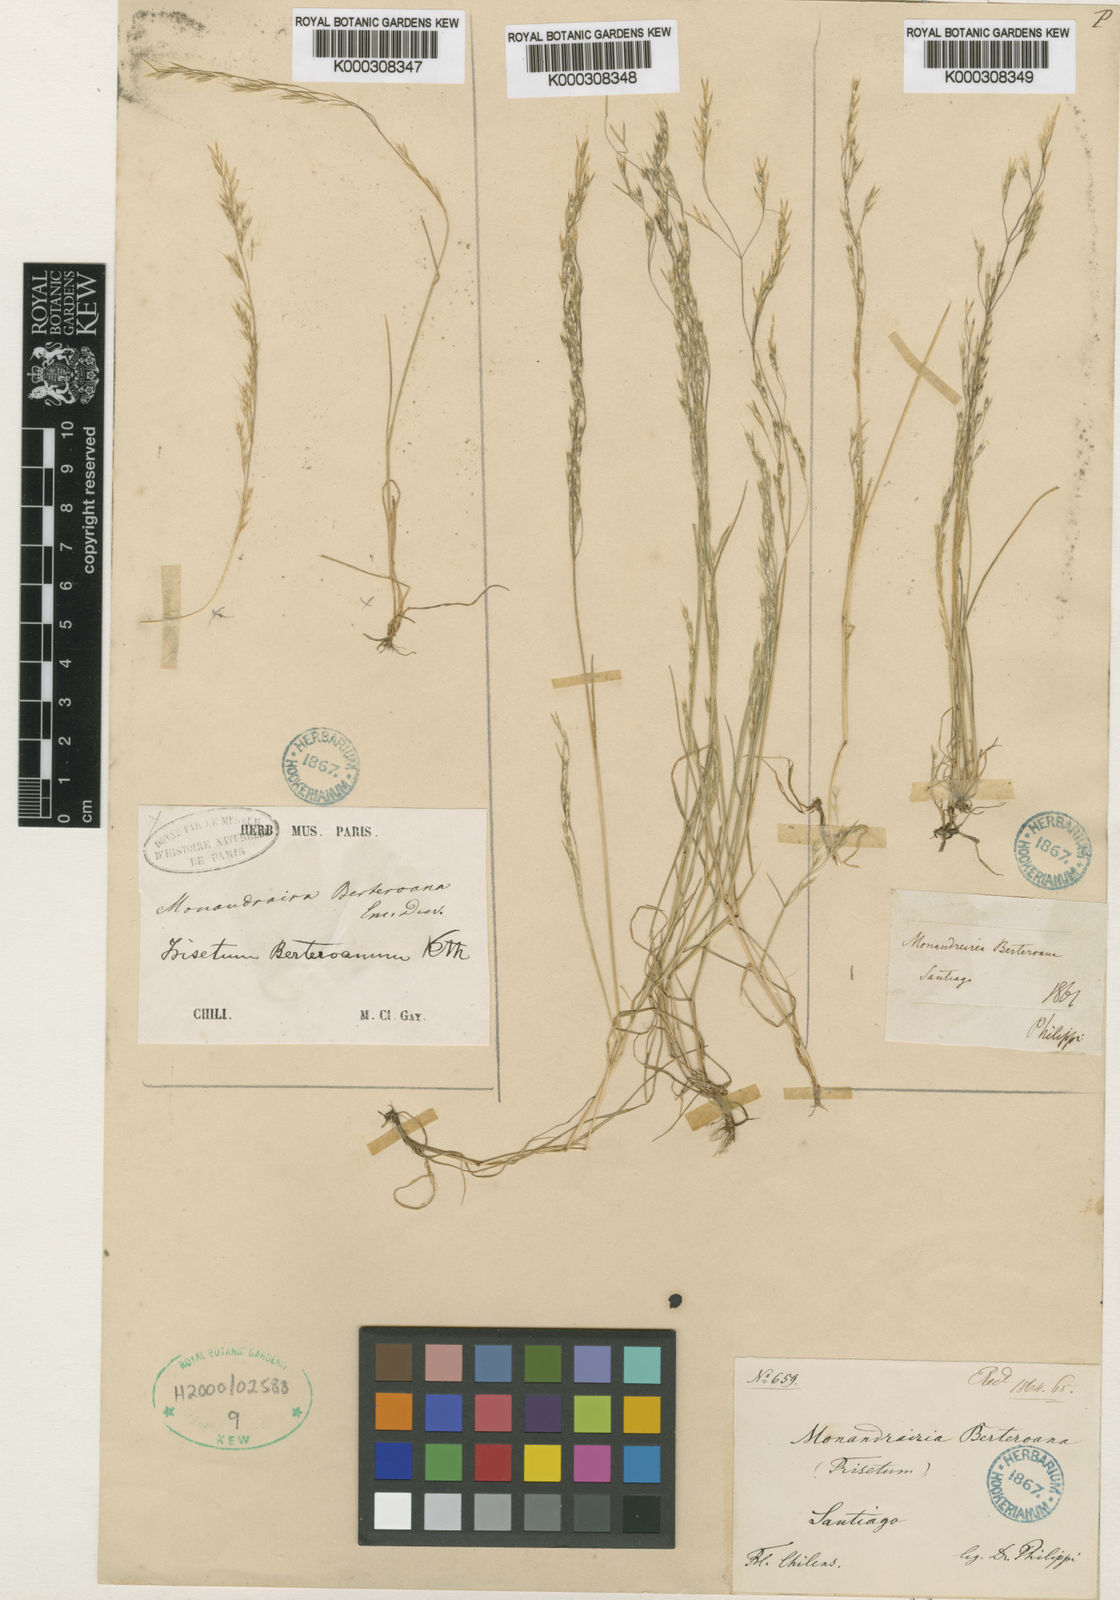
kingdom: Plantae
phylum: Tracheophyta
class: Liliopsida
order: Poales
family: Poaceae
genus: Deschampsia
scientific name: Deschampsia
